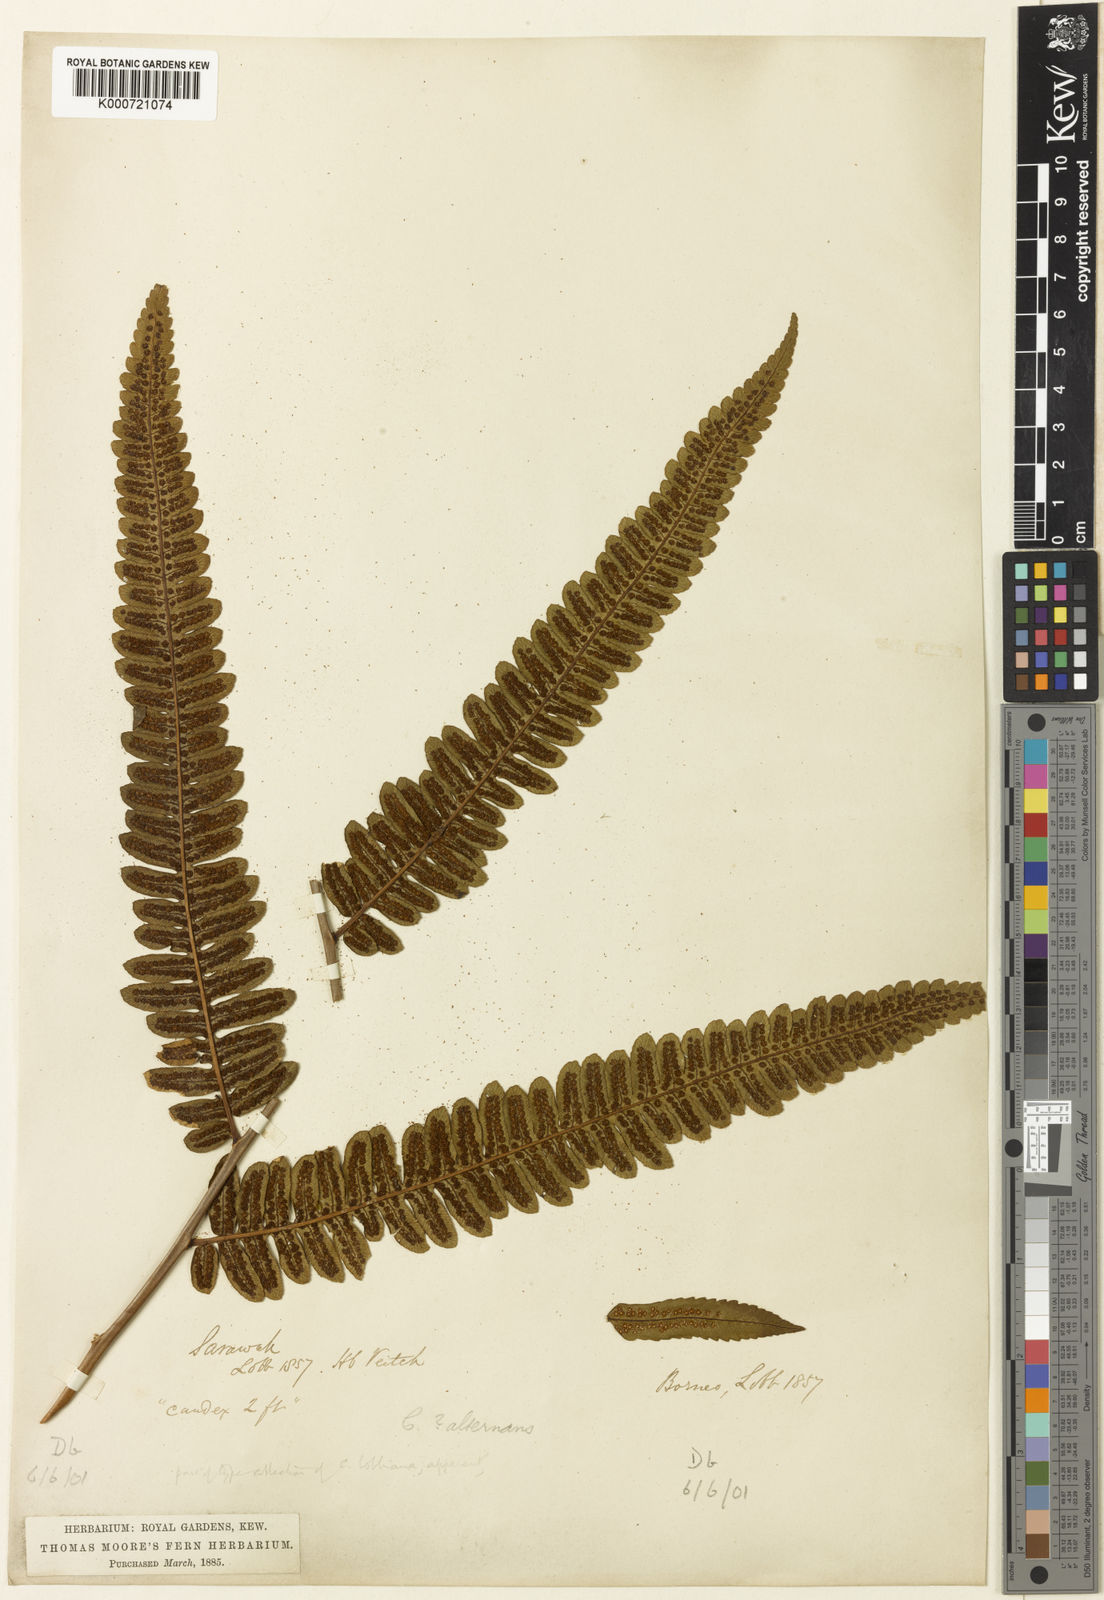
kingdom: Plantae
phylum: Tracheophyta
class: Polypodiopsida
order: Cyatheales
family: Cyatheaceae
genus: Alsophila
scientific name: Alsophila alternans
